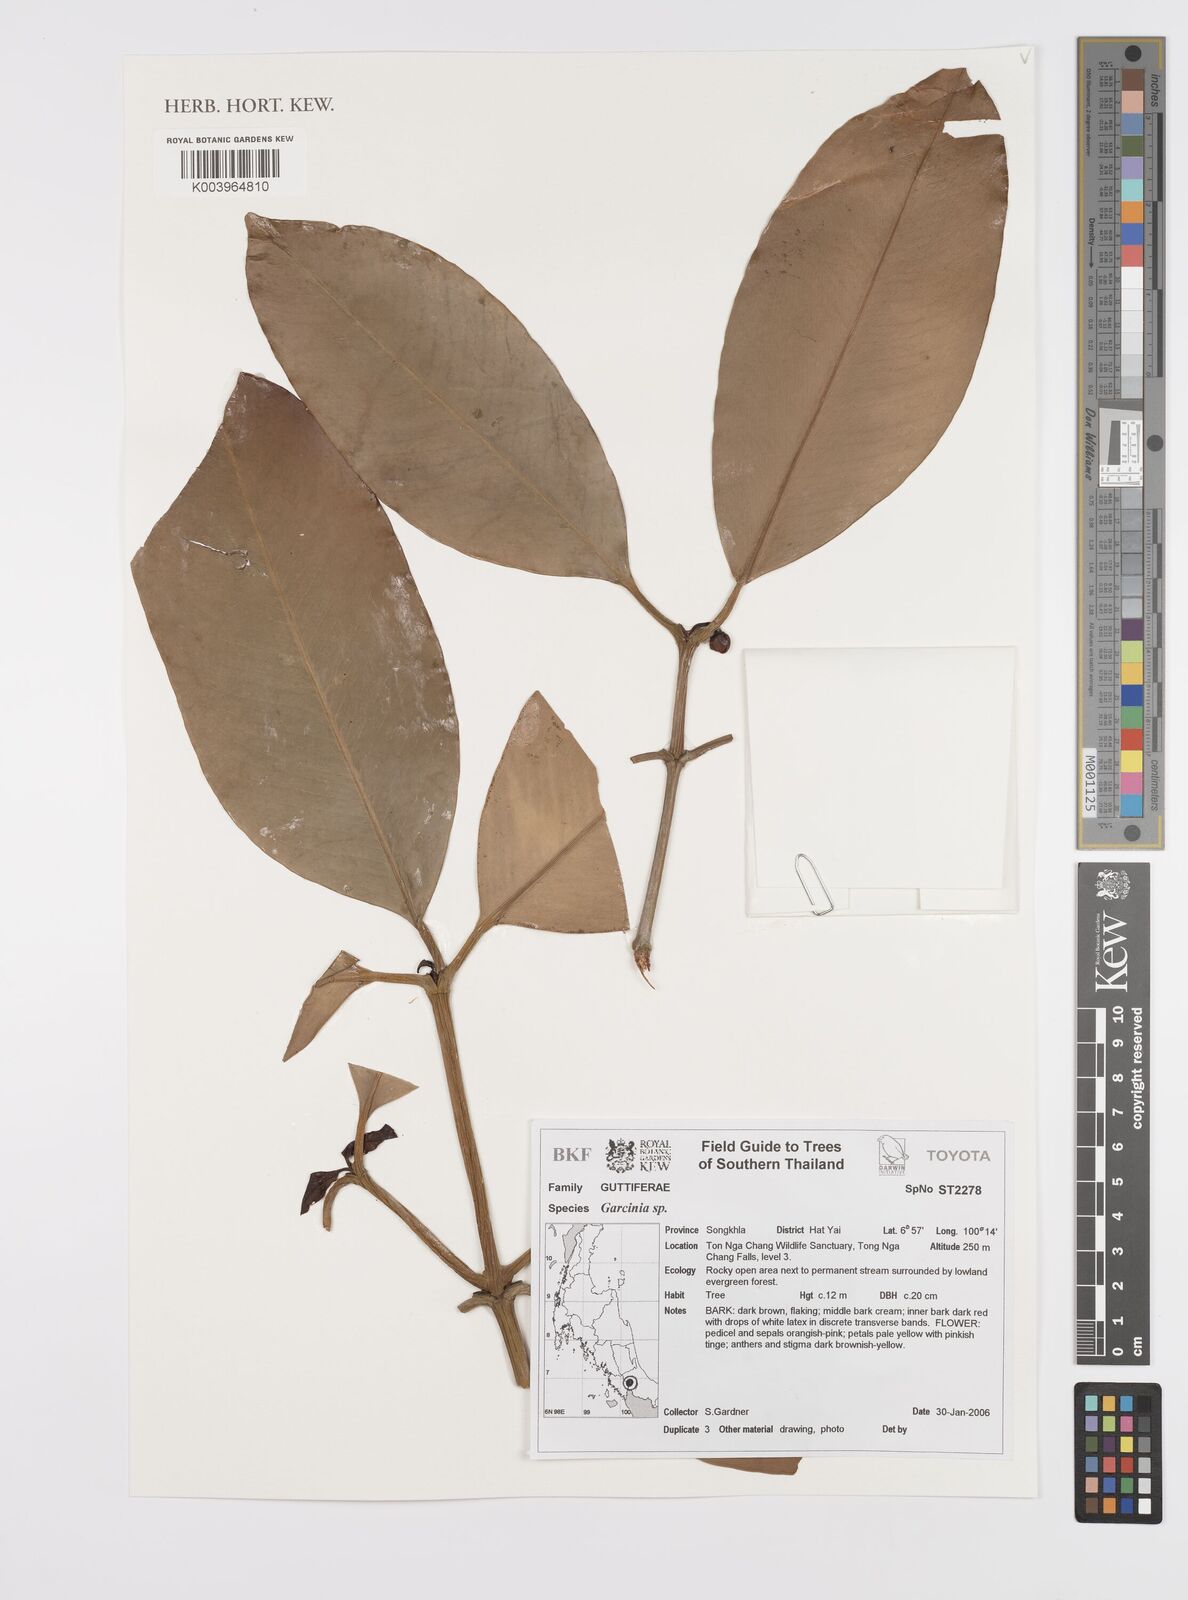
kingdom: Plantae
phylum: Tracheophyta
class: Magnoliopsida
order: Malpighiales
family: Clusiaceae
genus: Garcinia
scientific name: Garcinia
